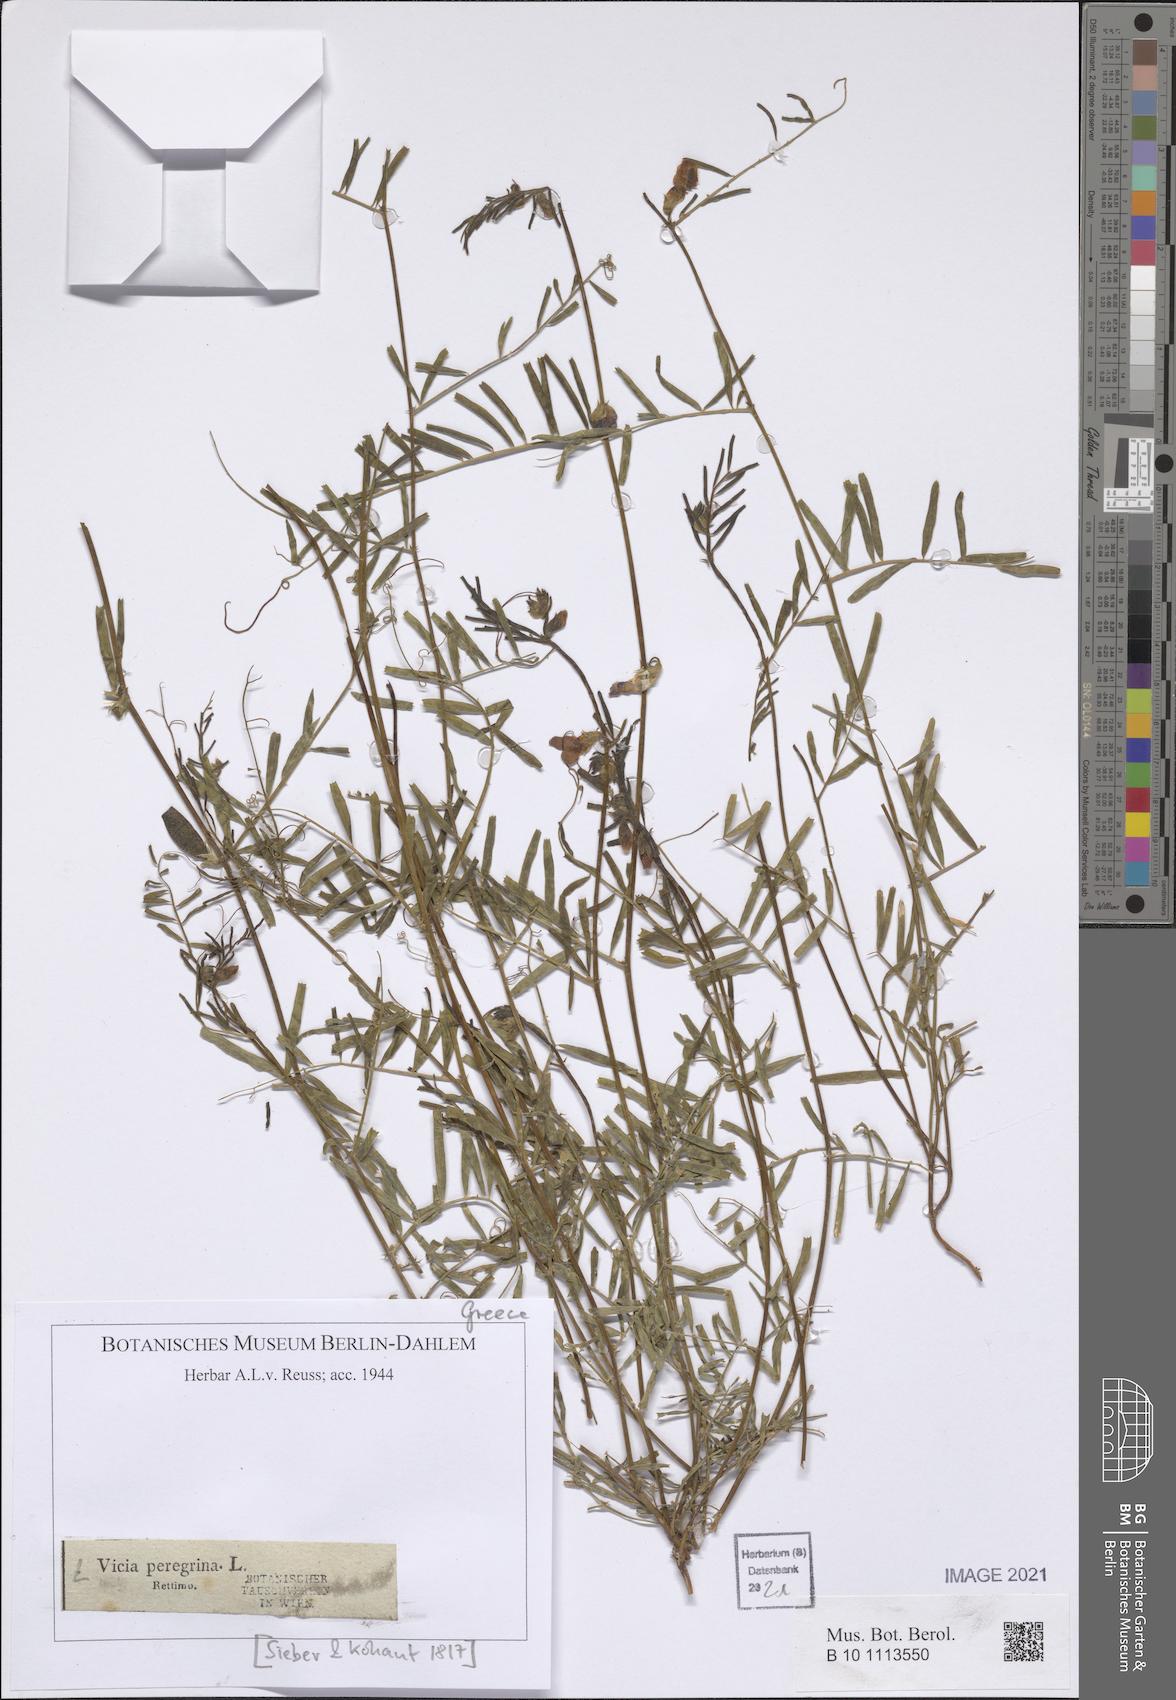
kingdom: Plantae
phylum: Tracheophyta
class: Magnoliopsida
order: Fabales
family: Fabaceae
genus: Vicia
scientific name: Vicia peregrina
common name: Broad-pod vetch
